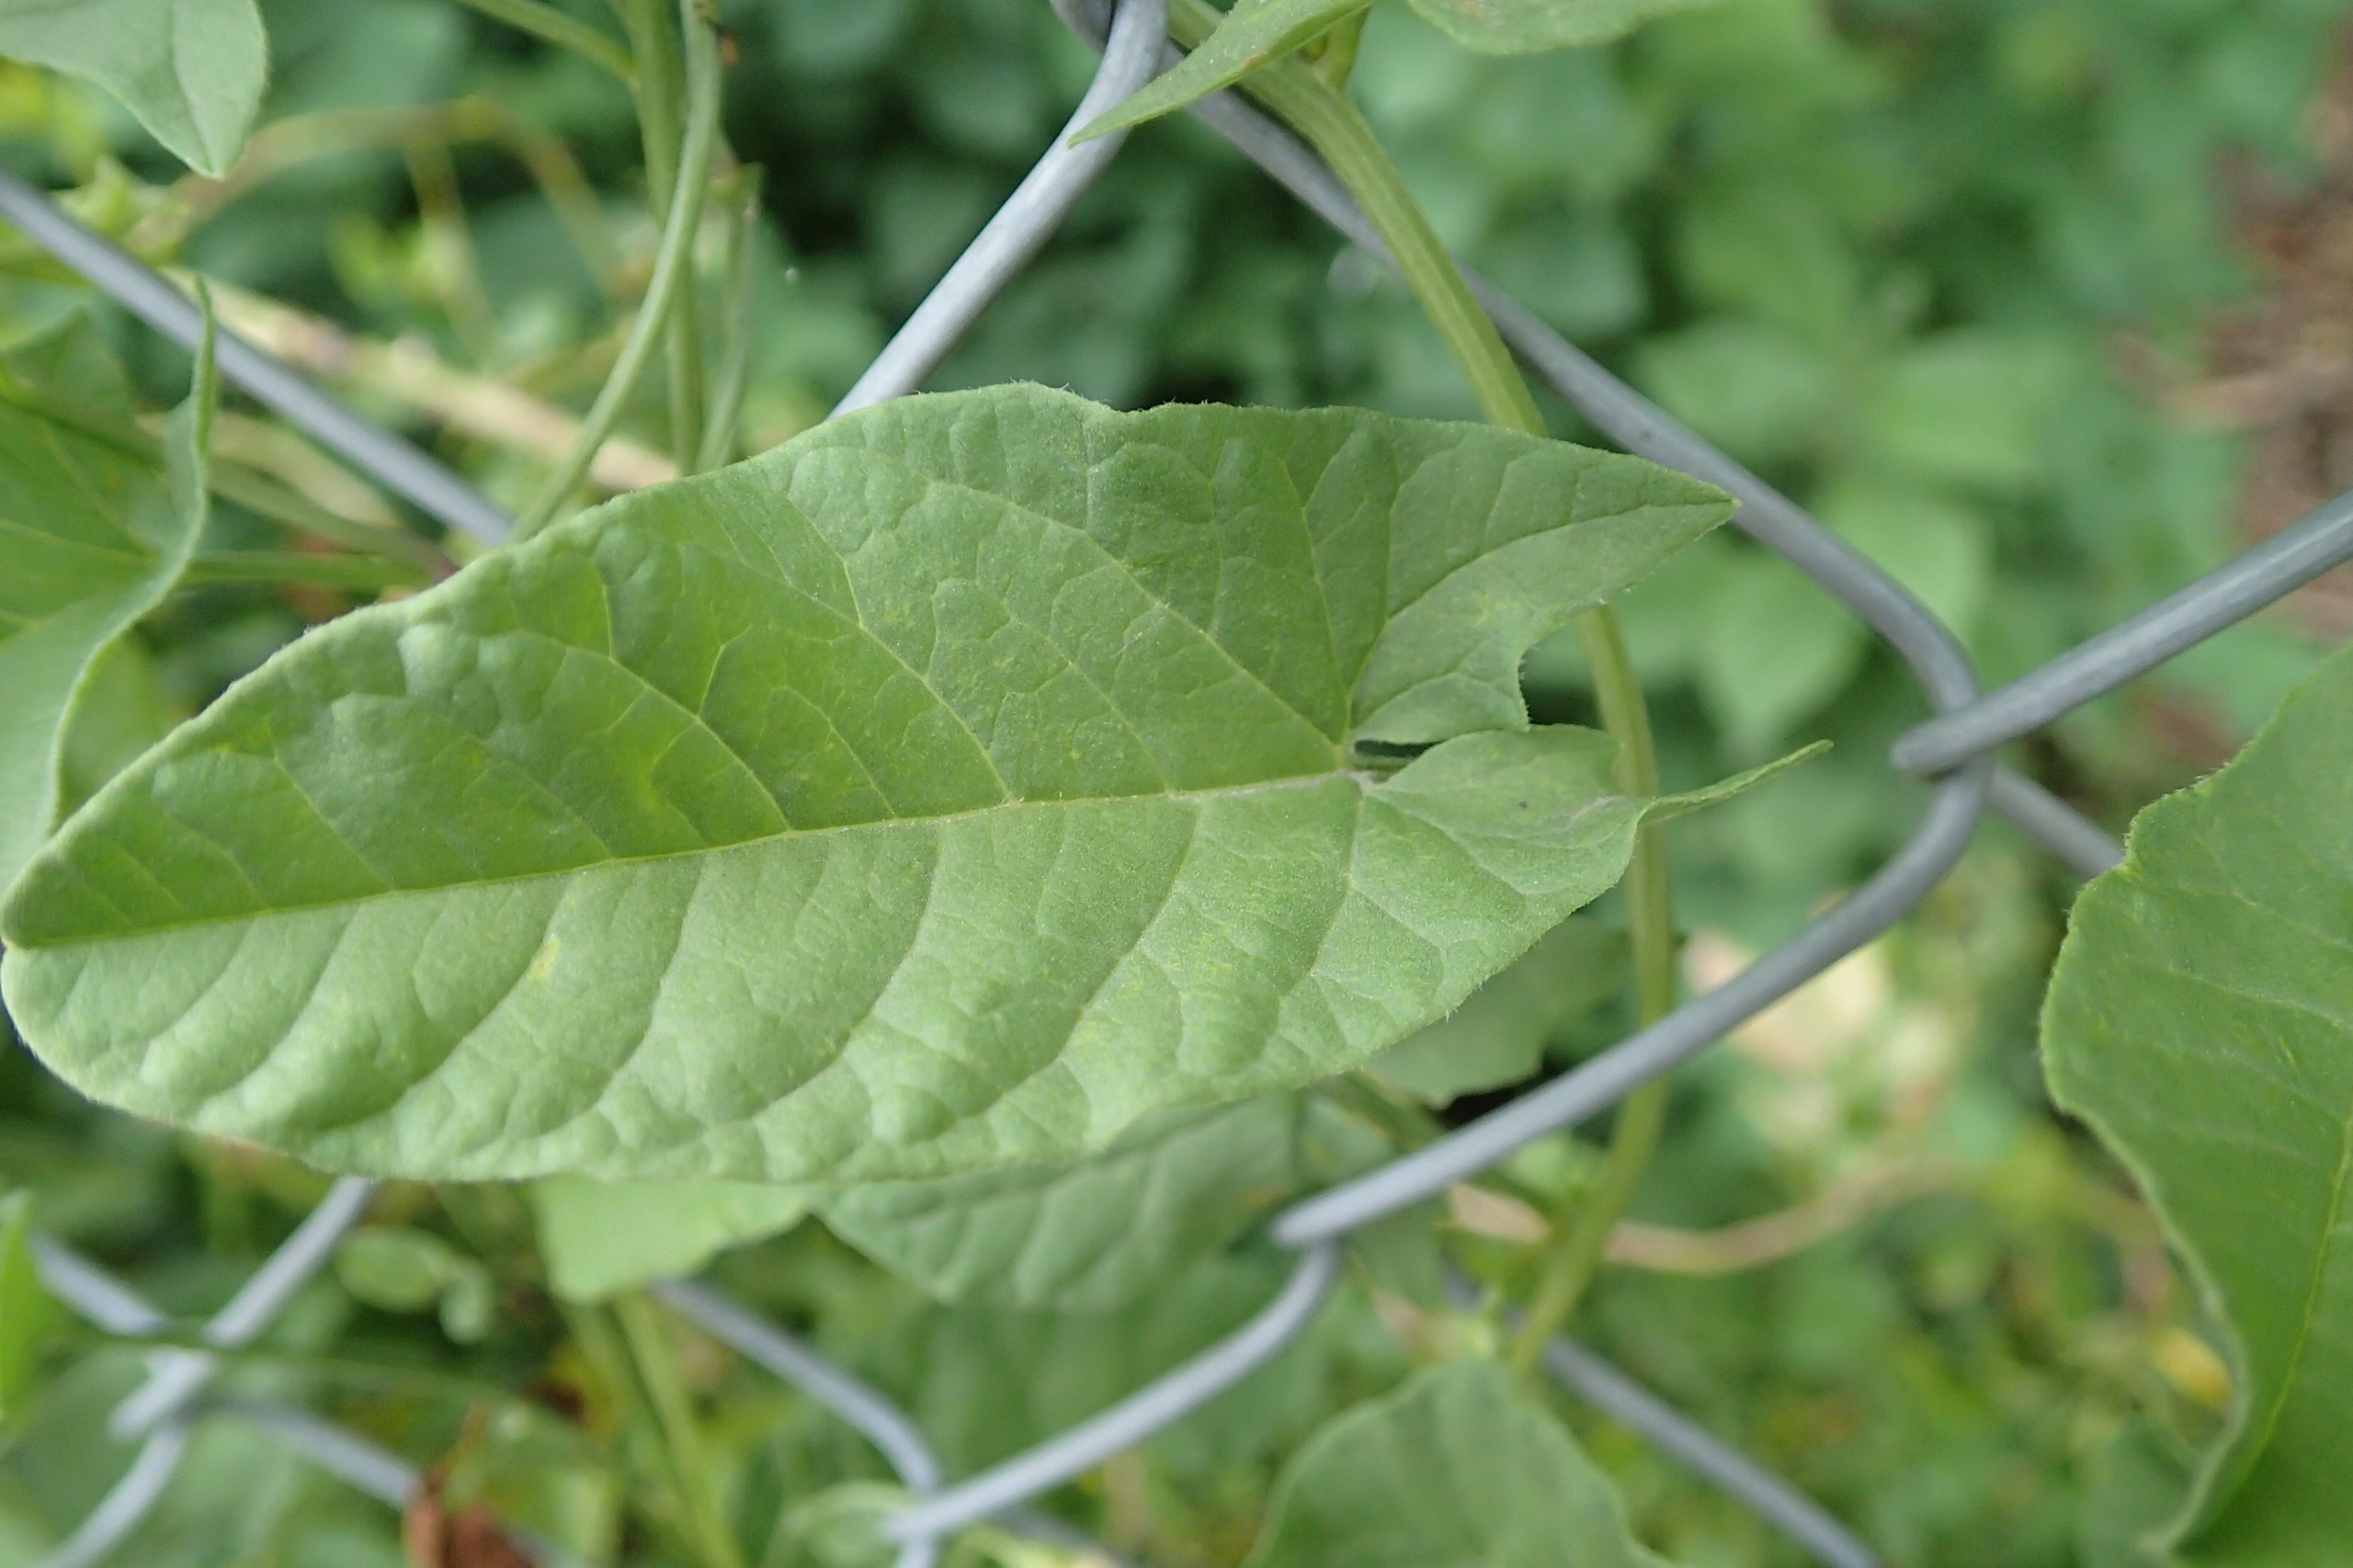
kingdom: Plantae
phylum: Tracheophyta
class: Magnoliopsida
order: Solanales
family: Convolvulaceae
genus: Convolvulus
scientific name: Convolvulus arvensis
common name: Ager-snerle
